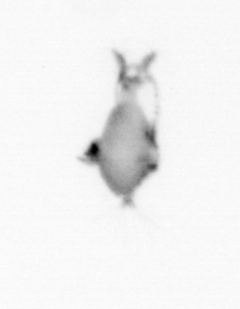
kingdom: Animalia
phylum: Arthropoda
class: Copepoda
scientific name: Copepoda
